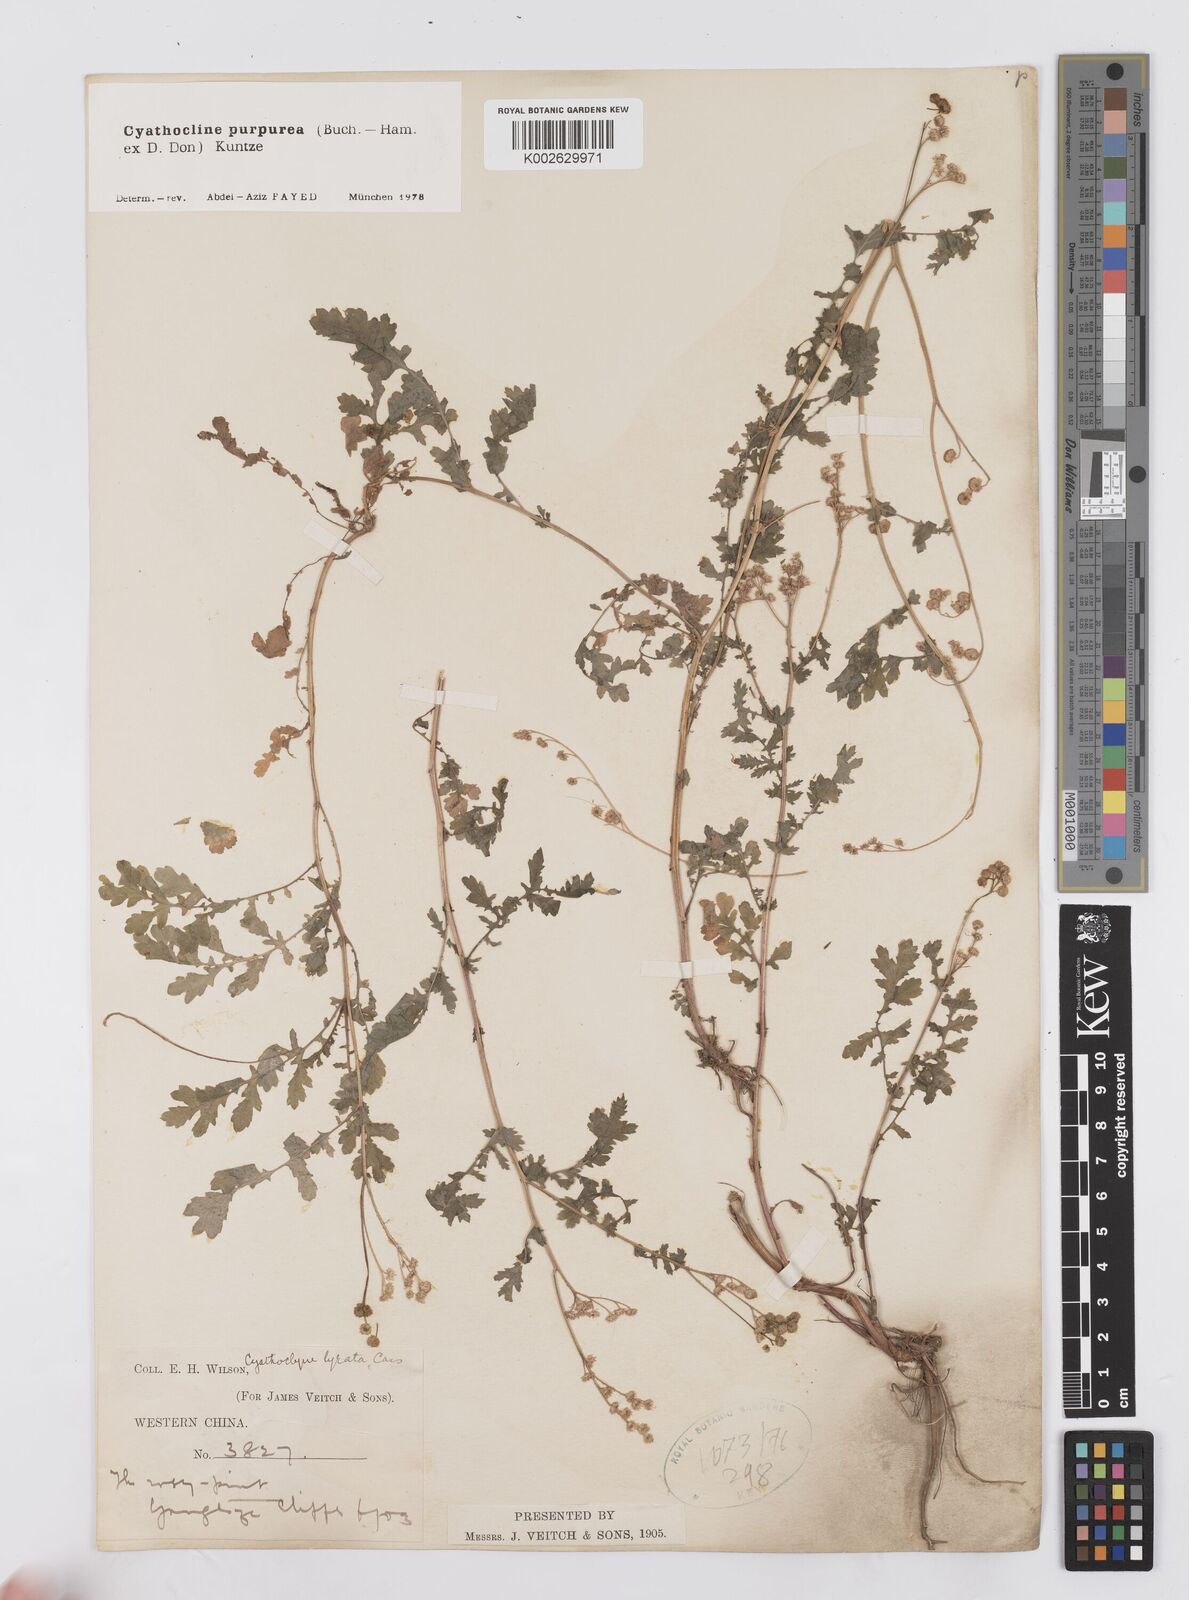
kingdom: Plantae
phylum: Tracheophyta
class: Magnoliopsida
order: Asterales
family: Asteraceae
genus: Cyathocline
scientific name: Cyathocline purpurea
